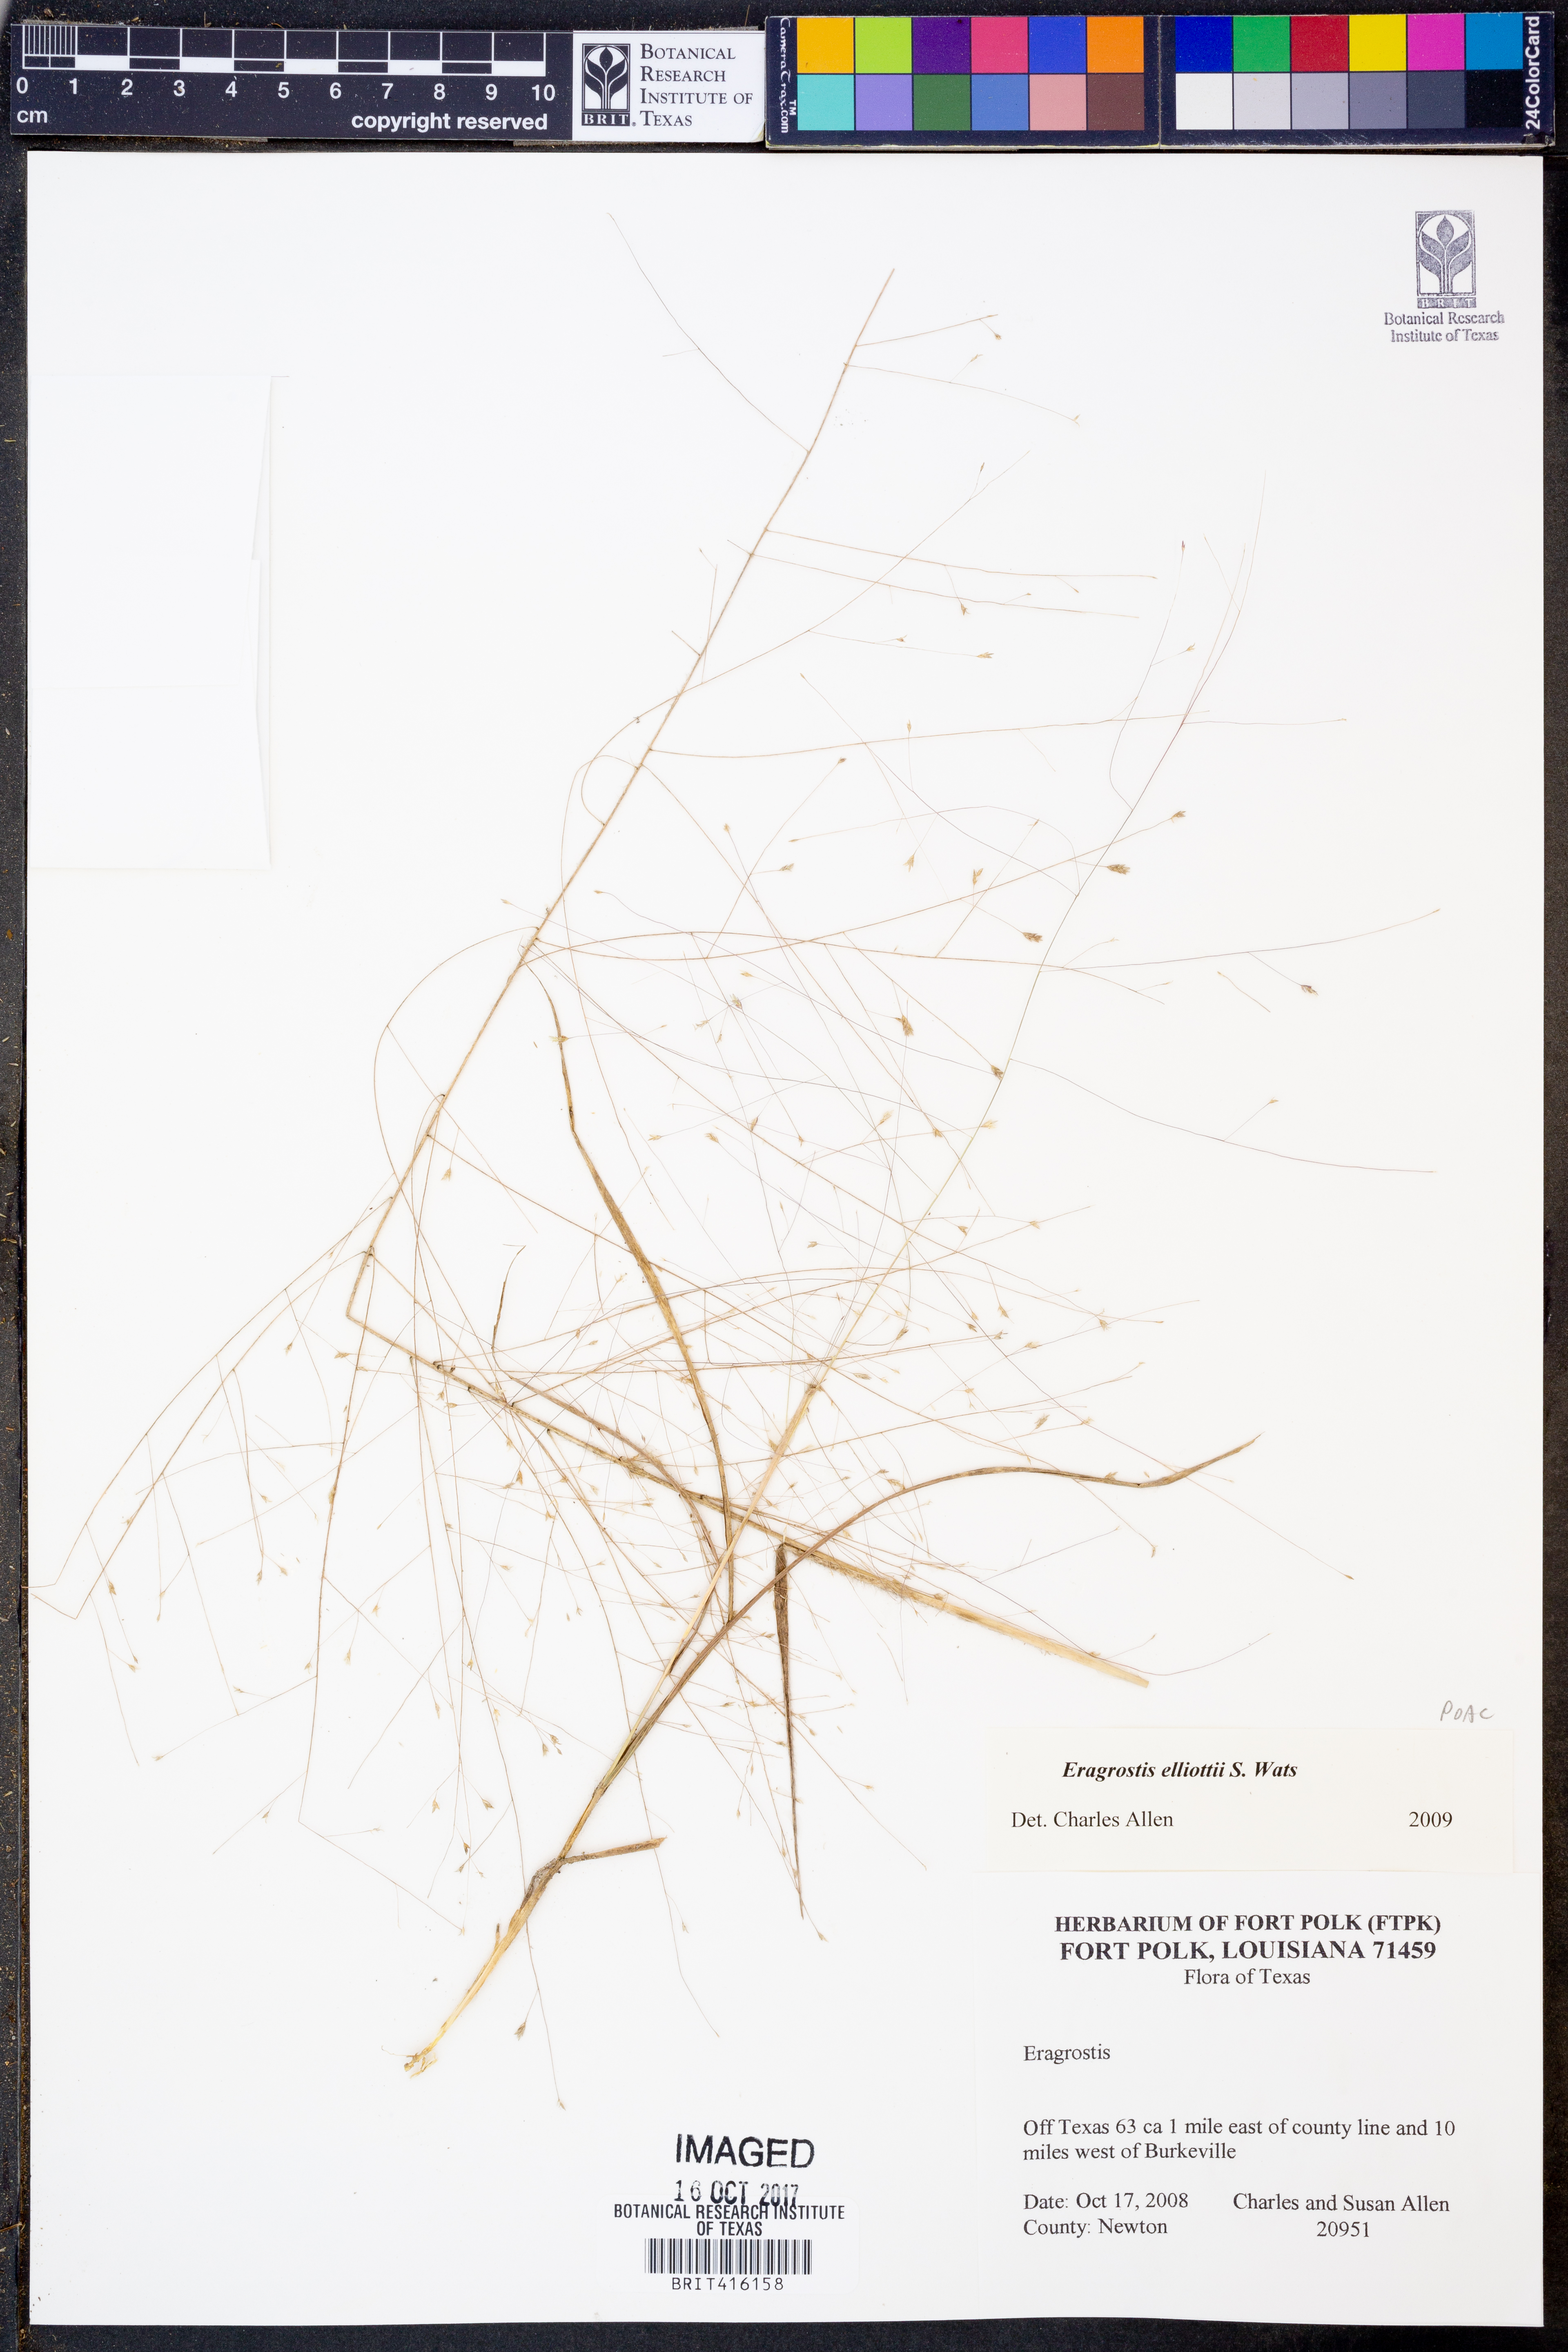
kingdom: Plantae
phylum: Tracheophyta
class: Liliopsida
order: Poales
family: Poaceae
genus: Eragrostis
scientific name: Eragrostis elliottii
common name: Elliott's love grass
